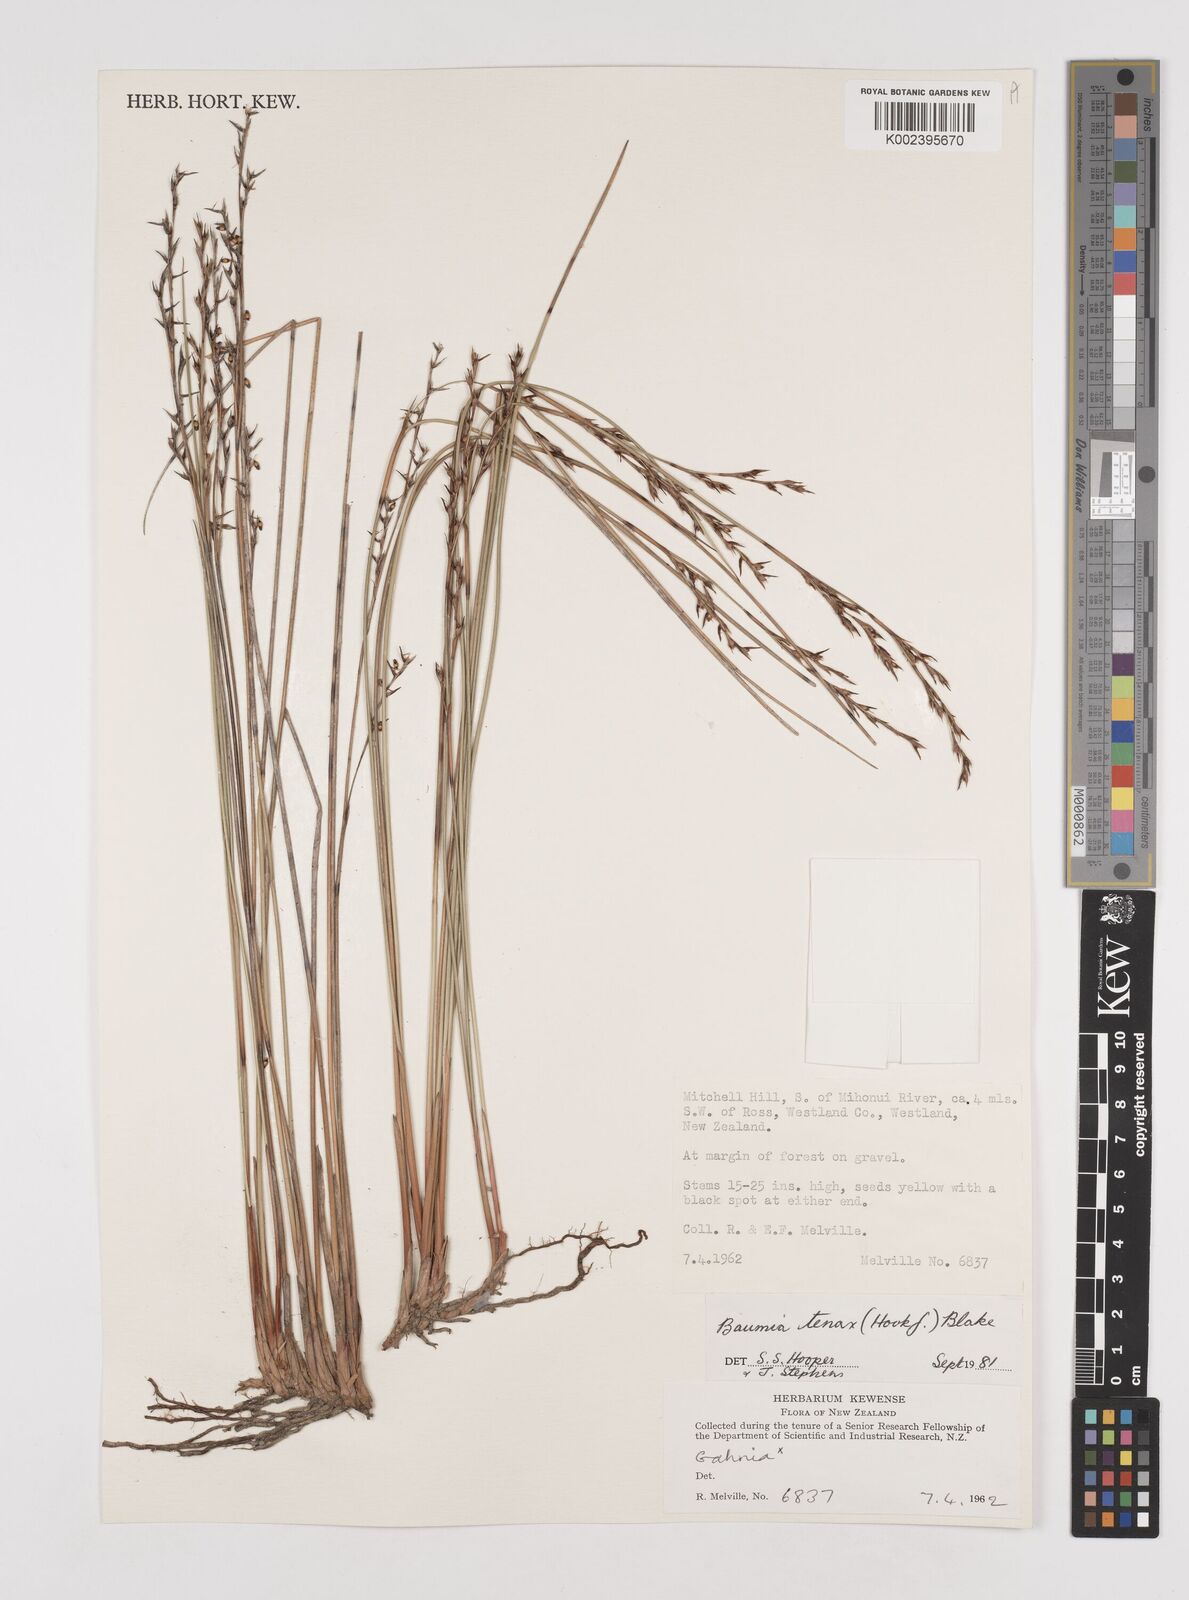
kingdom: Plantae
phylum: Tracheophyta
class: Liliopsida
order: Poales
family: Cyperaceae
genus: Machaerina
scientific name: Machaerina tenax
